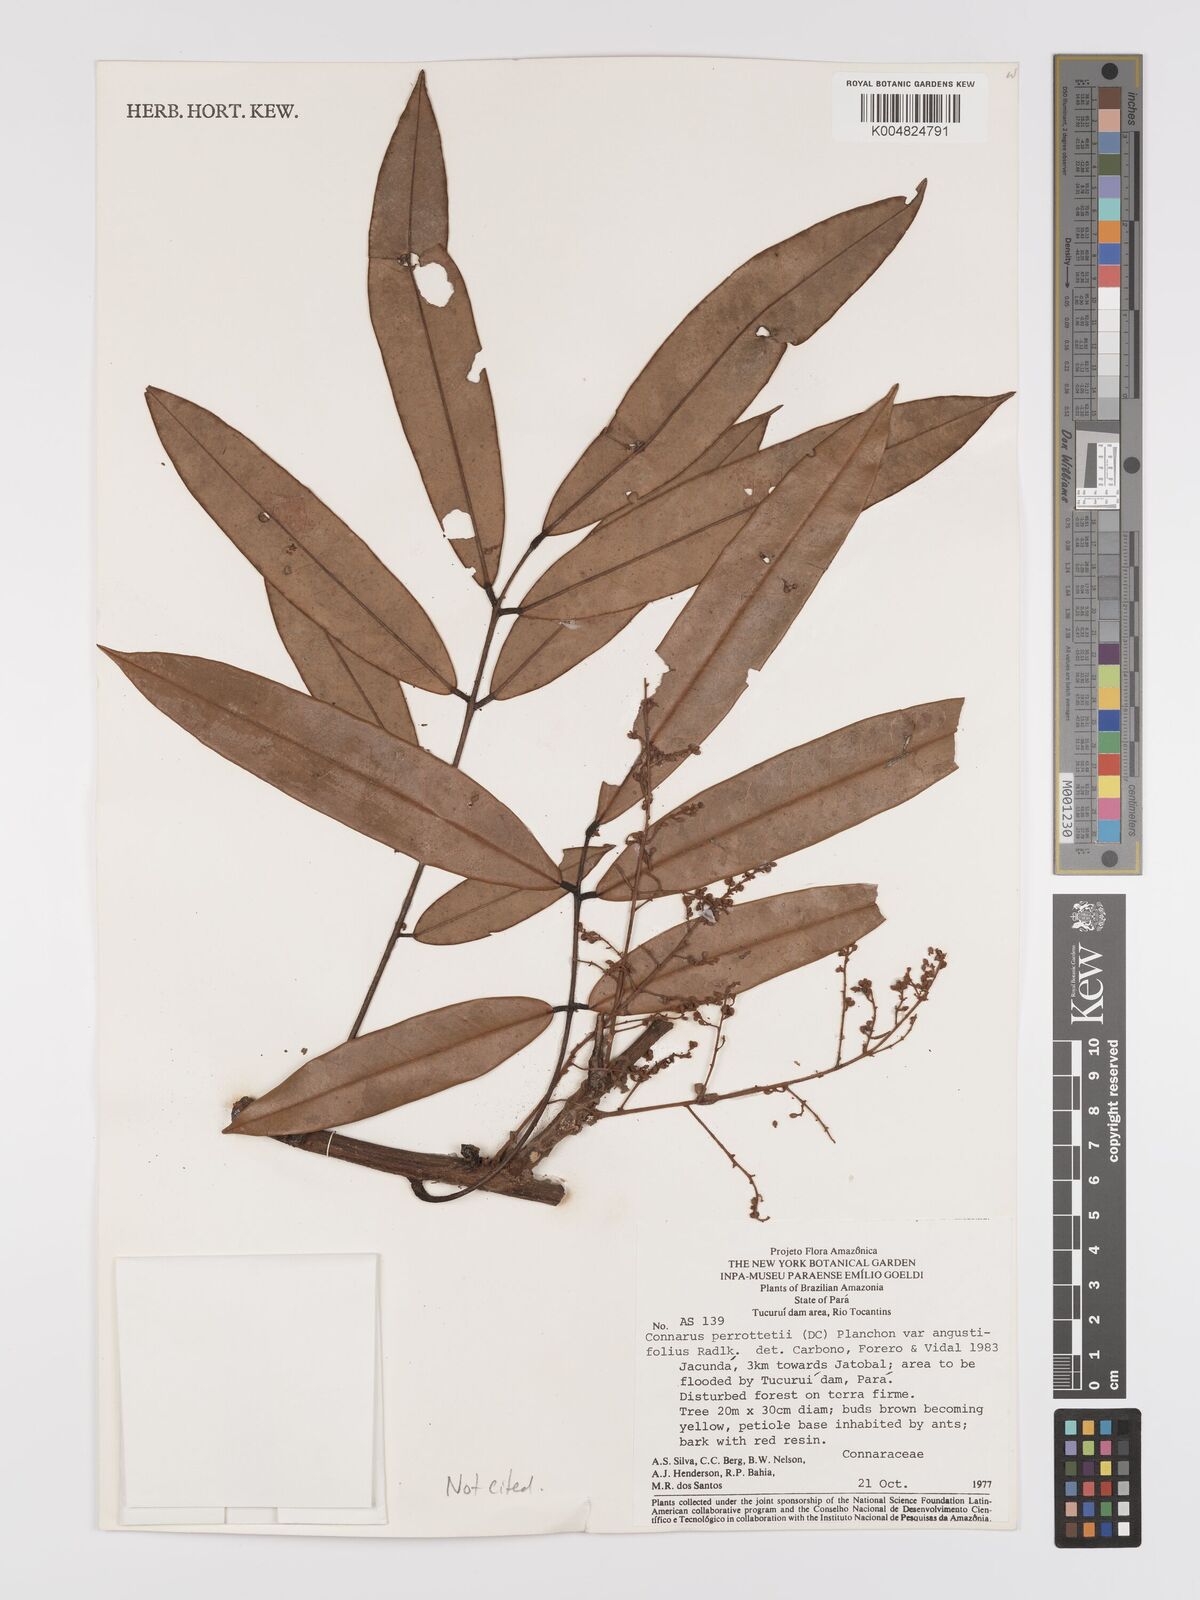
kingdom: Plantae
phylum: Tracheophyta
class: Magnoliopsida
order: Oxalidales
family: Connaraceae
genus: Connarus
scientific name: Connarus perrottetii
